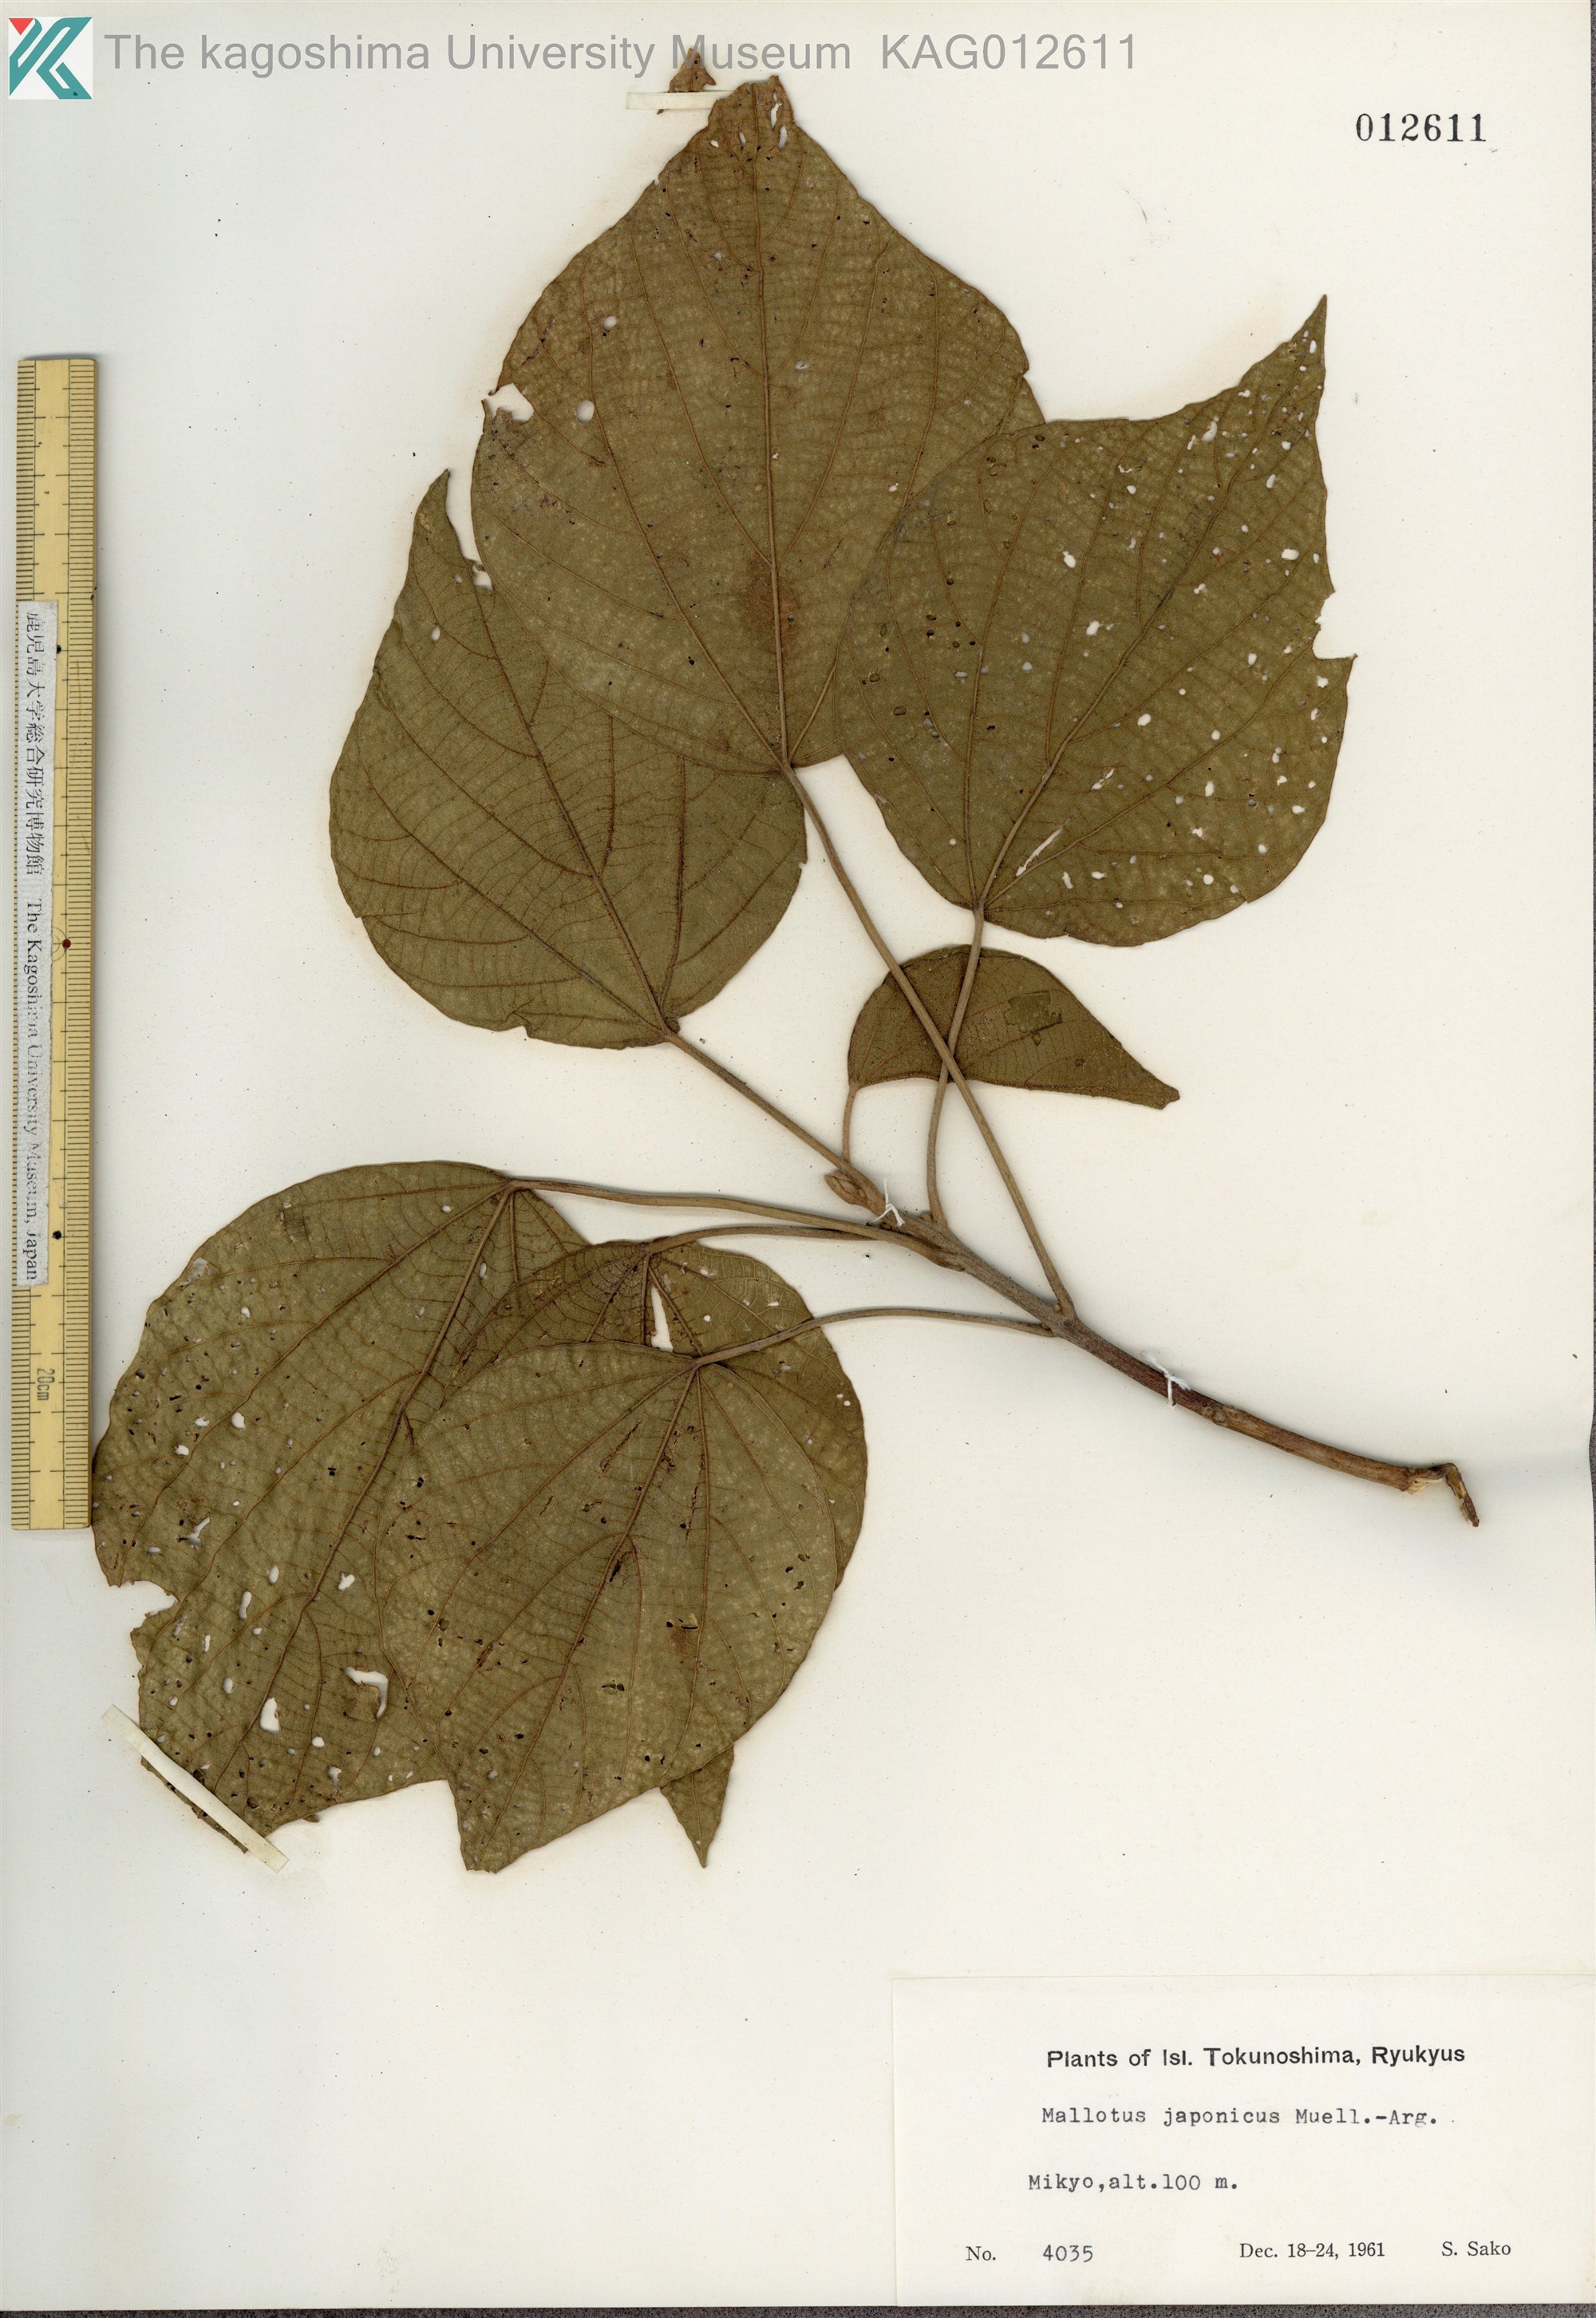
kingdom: Plantae
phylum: Tracheophyta
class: Magnoliopsida
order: Malpighiales
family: Euphorbiaceae
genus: Mallotus
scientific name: Mallotus japonicus
